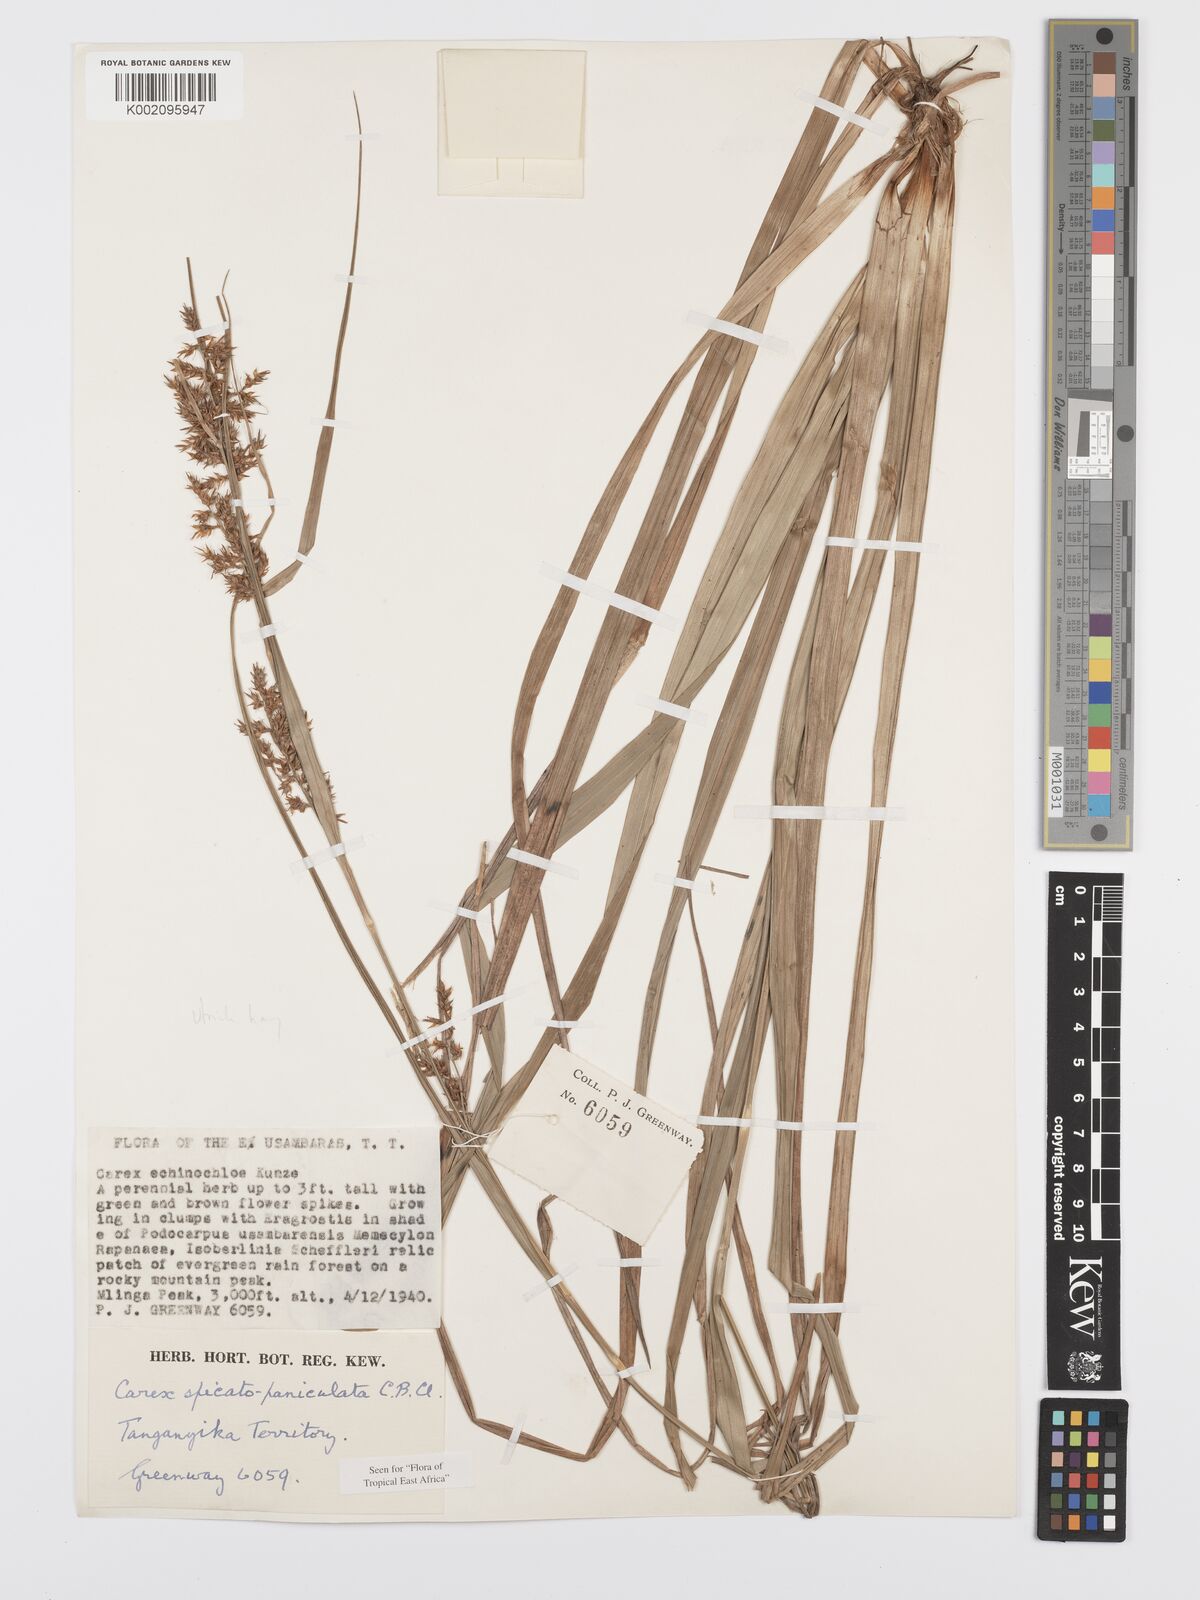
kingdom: Plantae
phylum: Tracheophyta
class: Liliopsida
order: Poales
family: Cyperaceae
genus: Carex
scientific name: Carex spicatopaniculata
